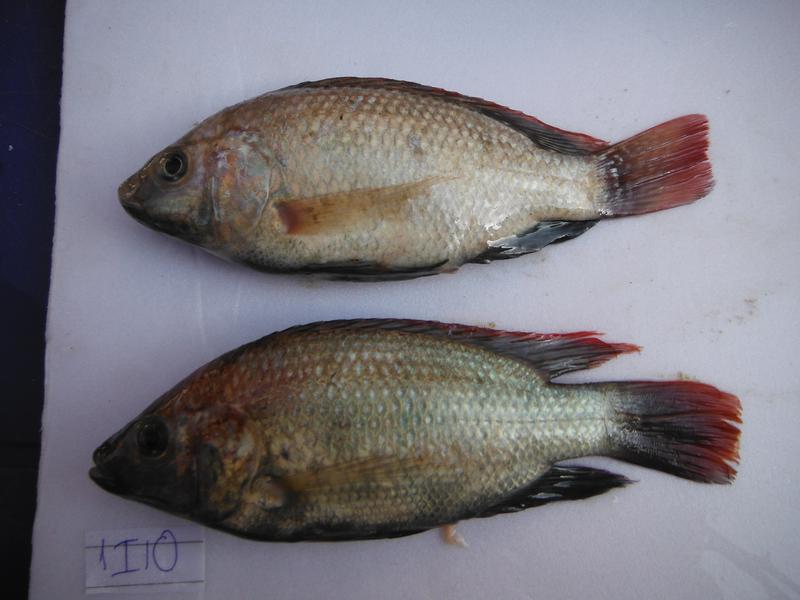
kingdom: Animalia
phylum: Chordata
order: Perciformes
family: Cichlidae
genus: Oreochromis
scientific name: Oreochromis rukwaensis
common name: Lake rukwa tilapia
